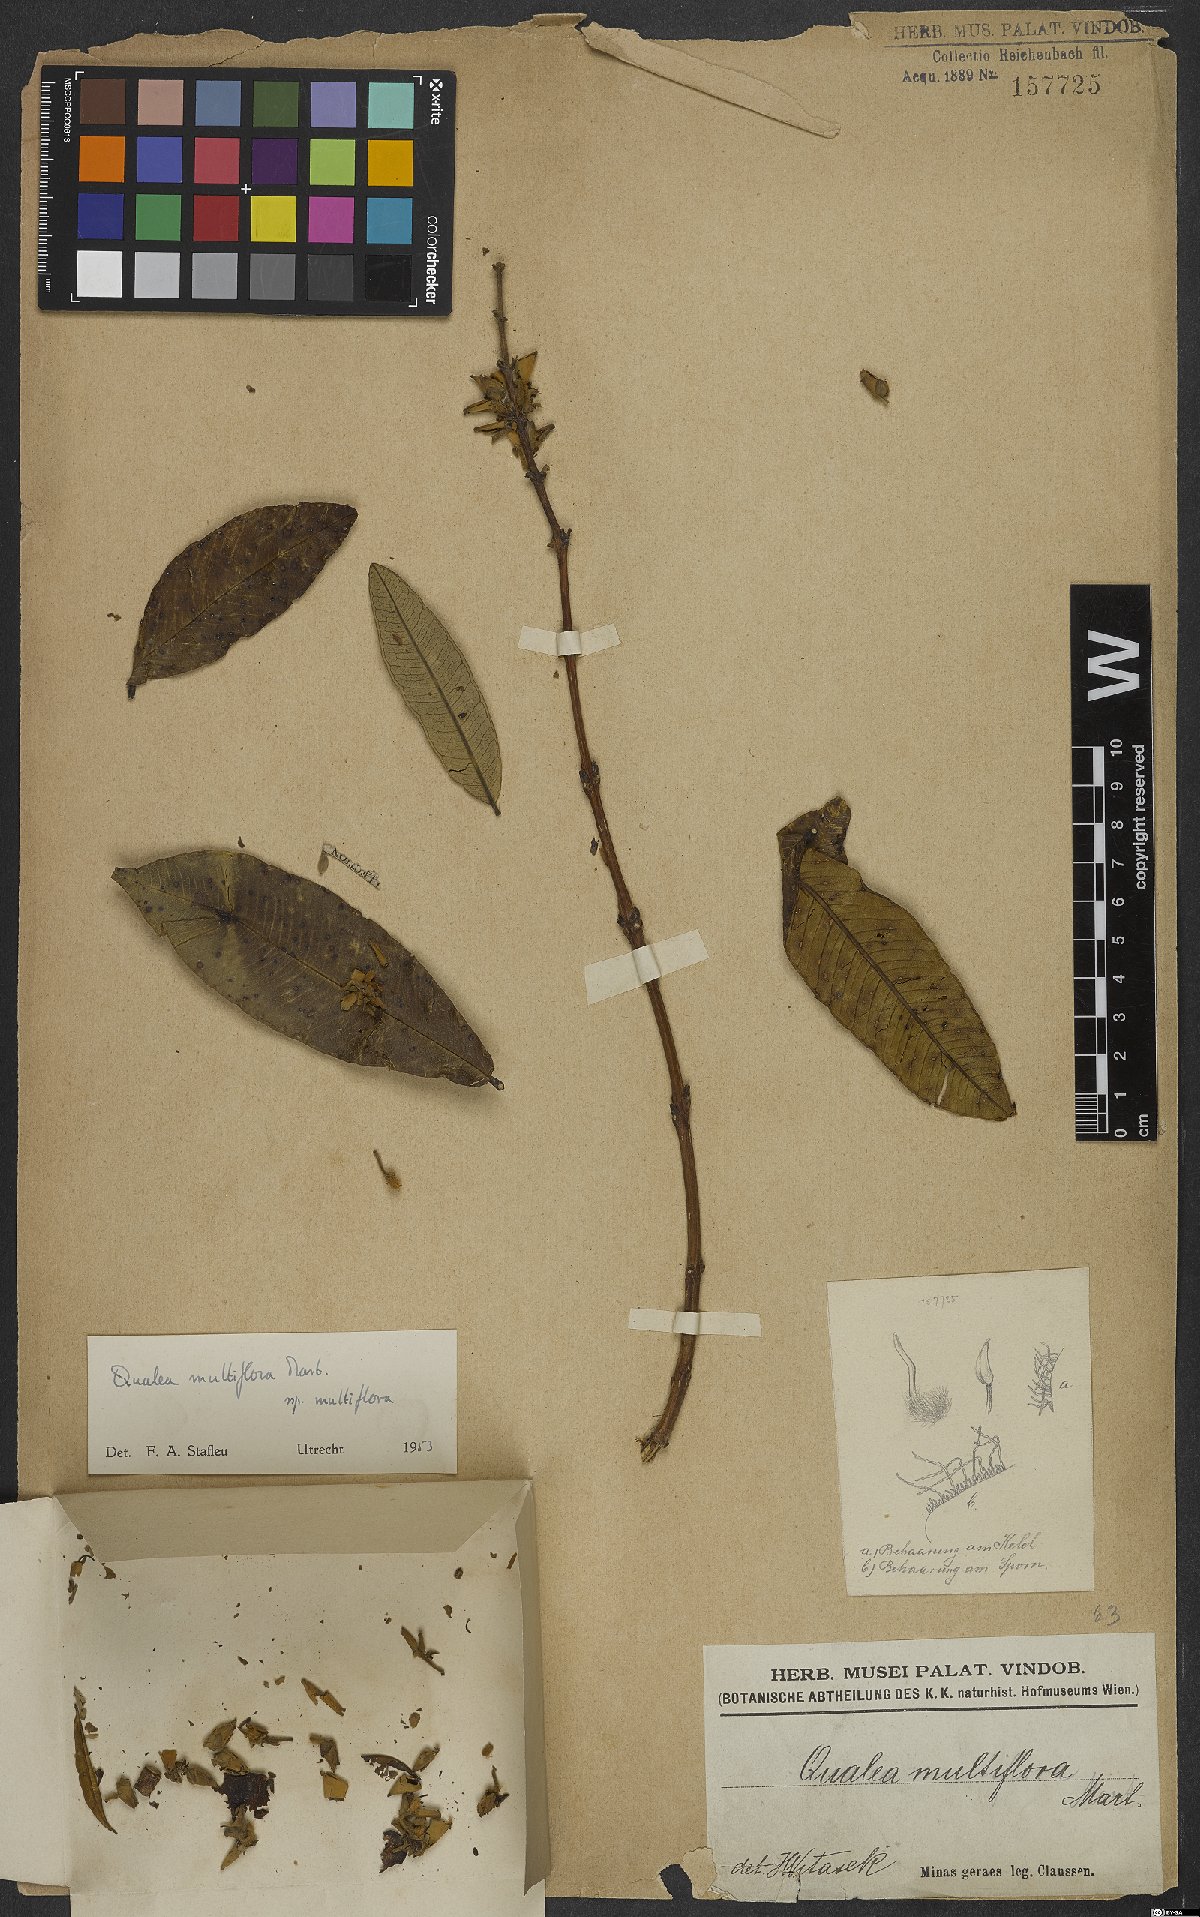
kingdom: Plantae
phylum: Tracheophyta
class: Magnoliopsida
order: Myrtales
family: Vochysiaceae
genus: Qualea
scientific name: Qualea multiflora
